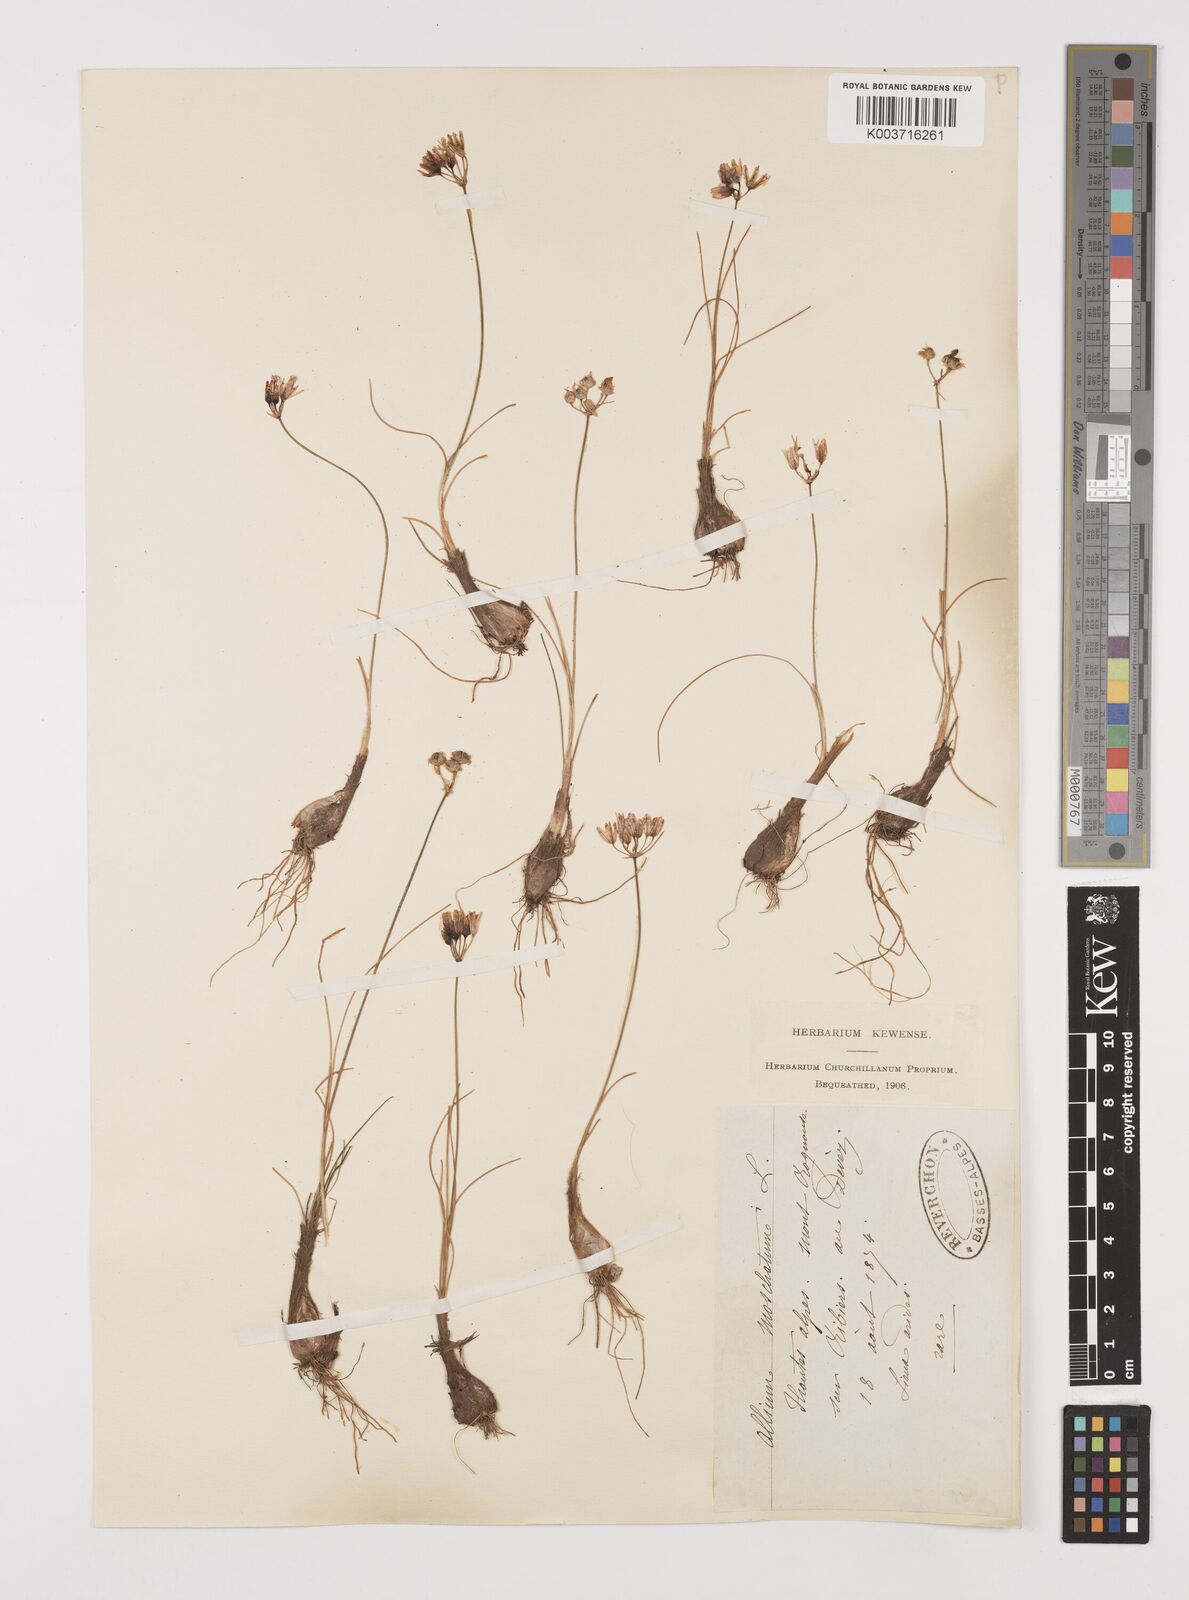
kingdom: Plantae
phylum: Tracheophyta
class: Liliopsida
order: Asparagales
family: Amaryllidaceae
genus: Allium
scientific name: Allium moschatum
